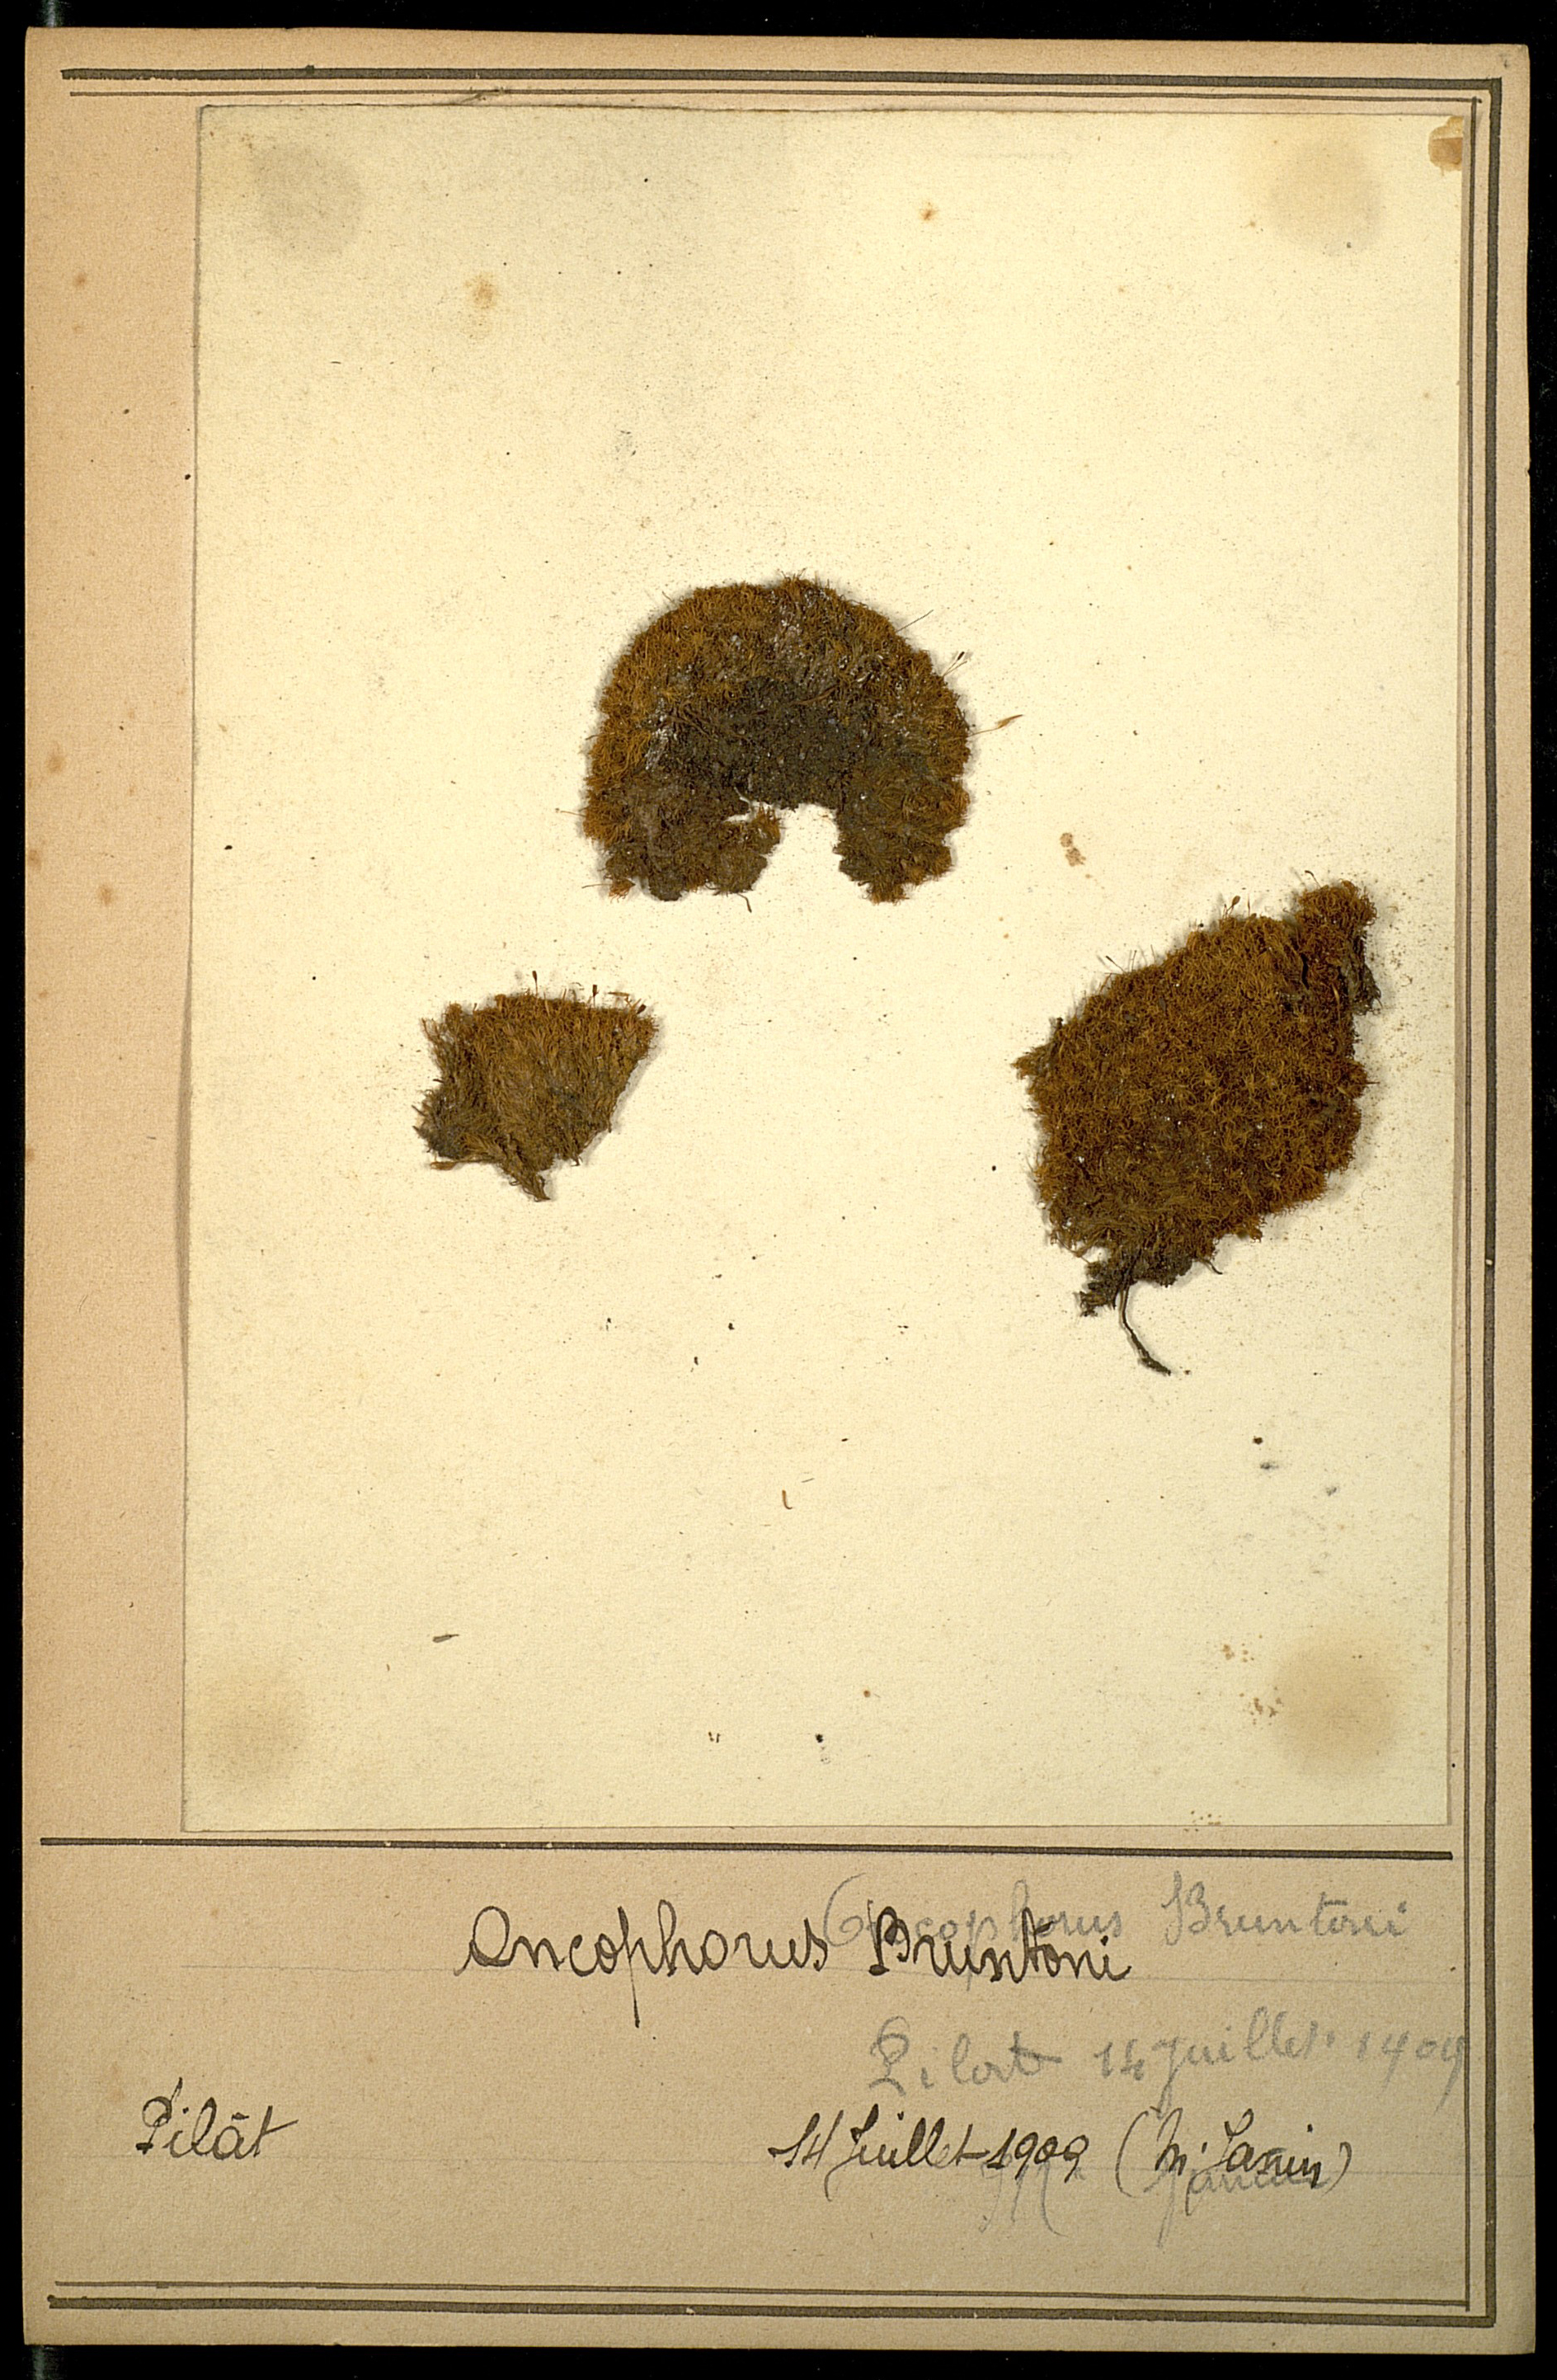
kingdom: Plantae
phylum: Bryophyta
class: Bryopsida
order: Dicranales
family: Rhabdoweisiaceae
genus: Cynodontium
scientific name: Cynodontium bruntonii
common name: Brunton's dog-tooth
